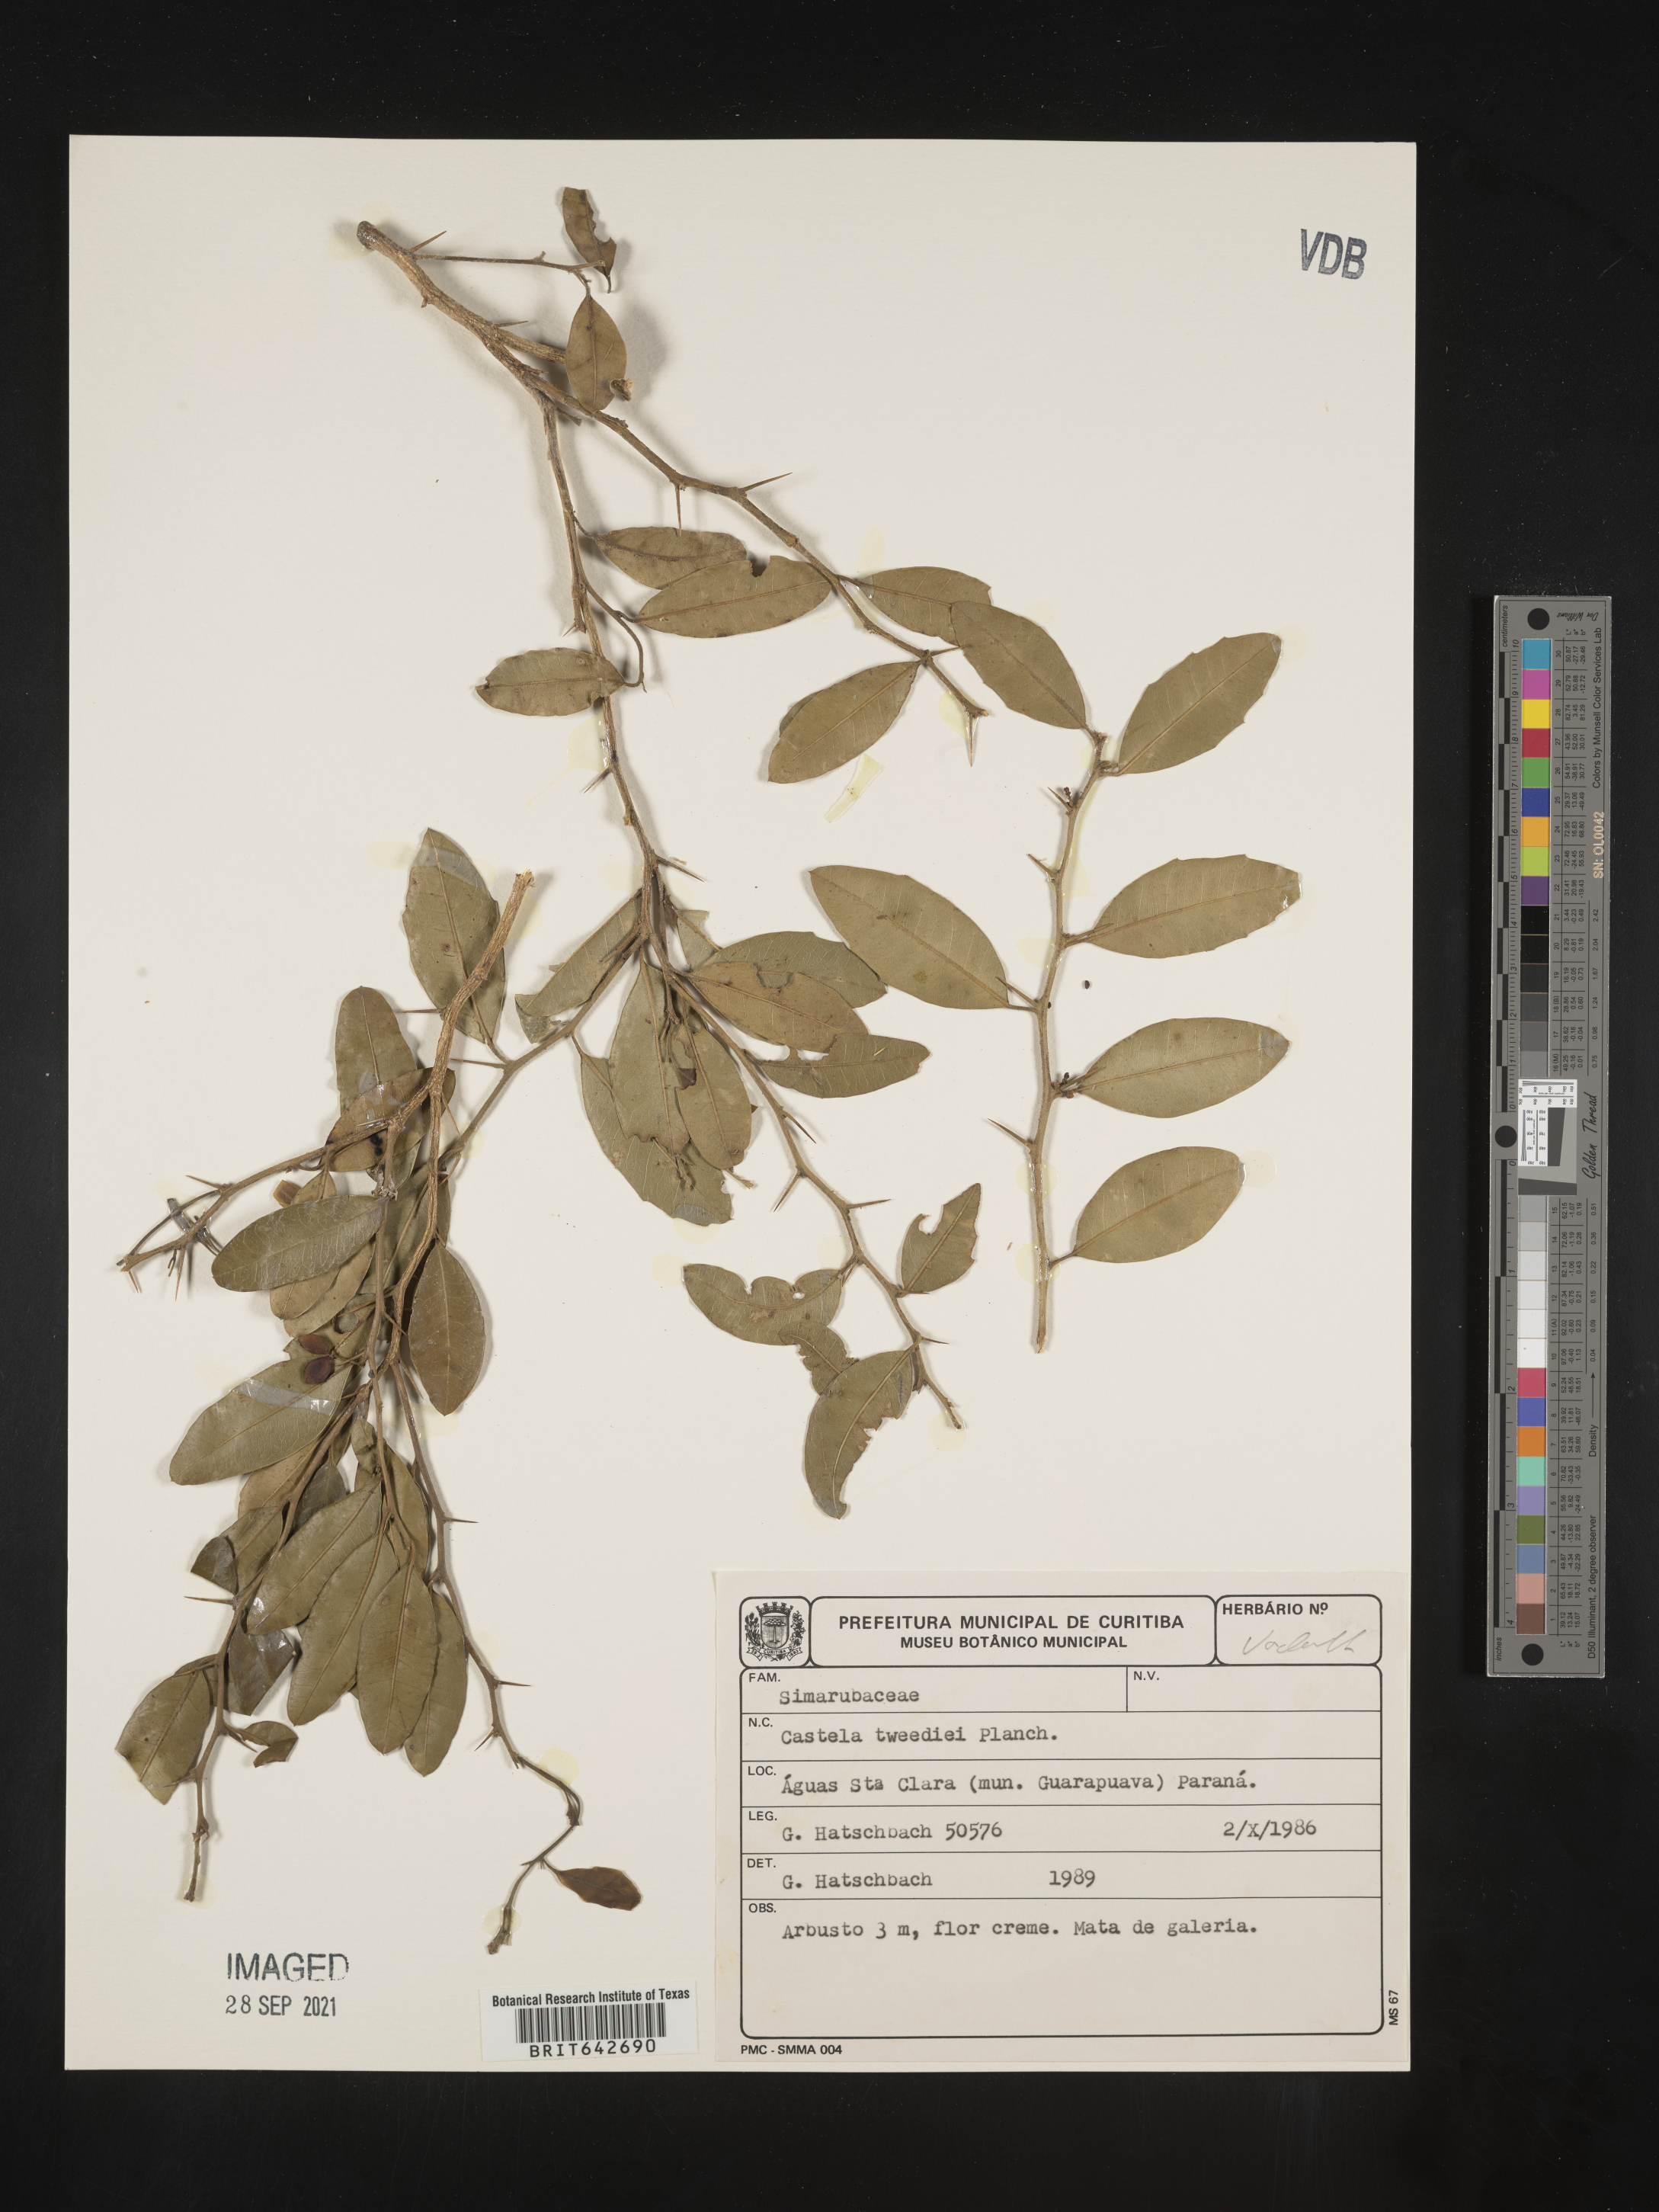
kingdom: Plantae
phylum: Tracheophyta
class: Magnoliopsida
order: Sapindales
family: Simaroubaceae
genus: Castela
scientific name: Castela
